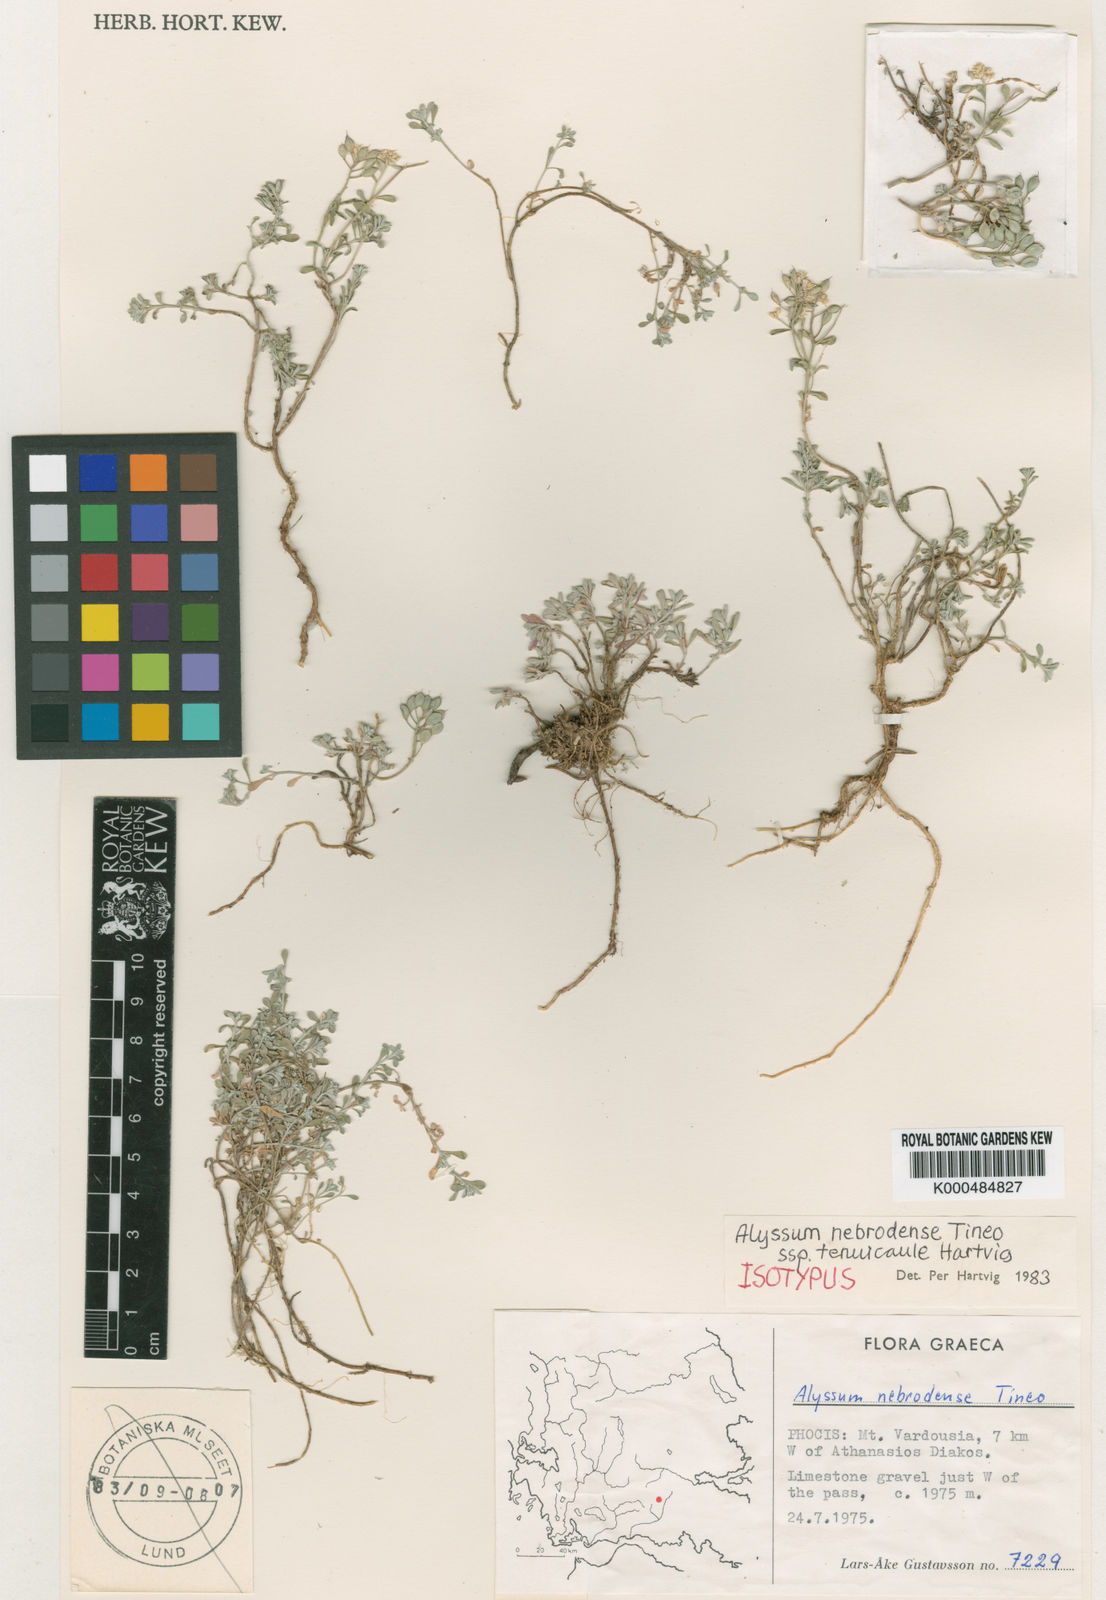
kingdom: Plantae
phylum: Tracheophyta
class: Magnoliopsida
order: Brassicales
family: Brassicaceae
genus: Odontarrhena
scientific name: Odontarrhena nebrodensis
